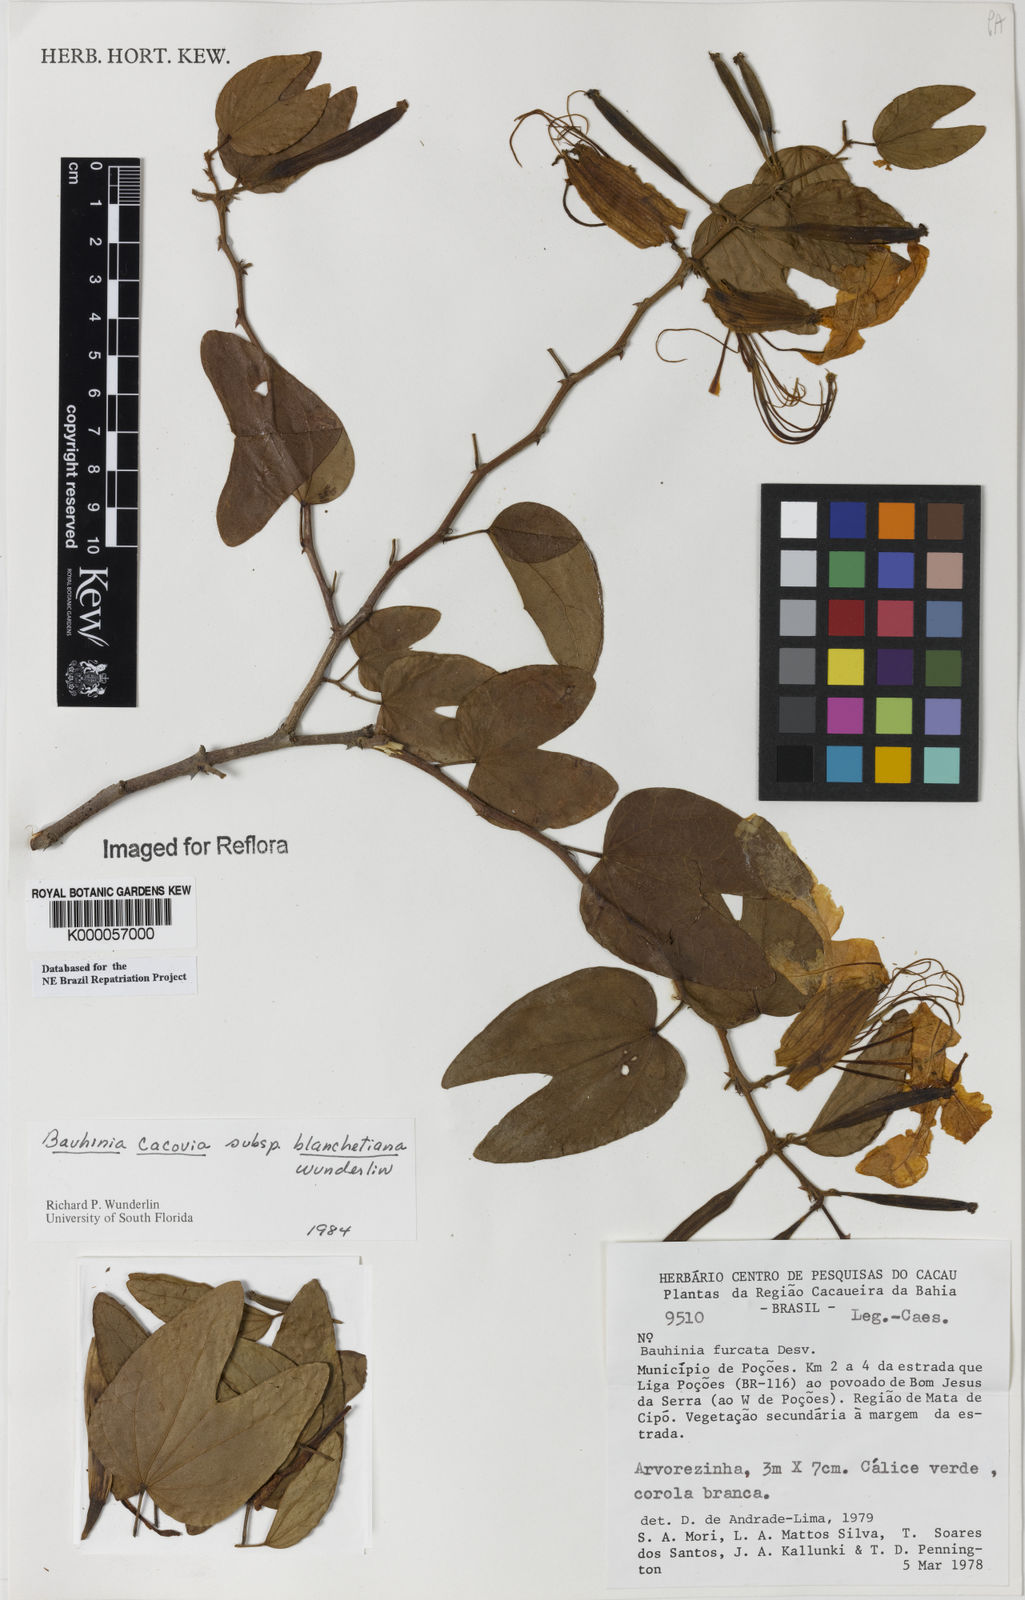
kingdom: Plantae
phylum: Tracheophyta
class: Magnoliopsida
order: Fabales
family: Fabaceae
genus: Bauhinia
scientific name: Bauhinia
